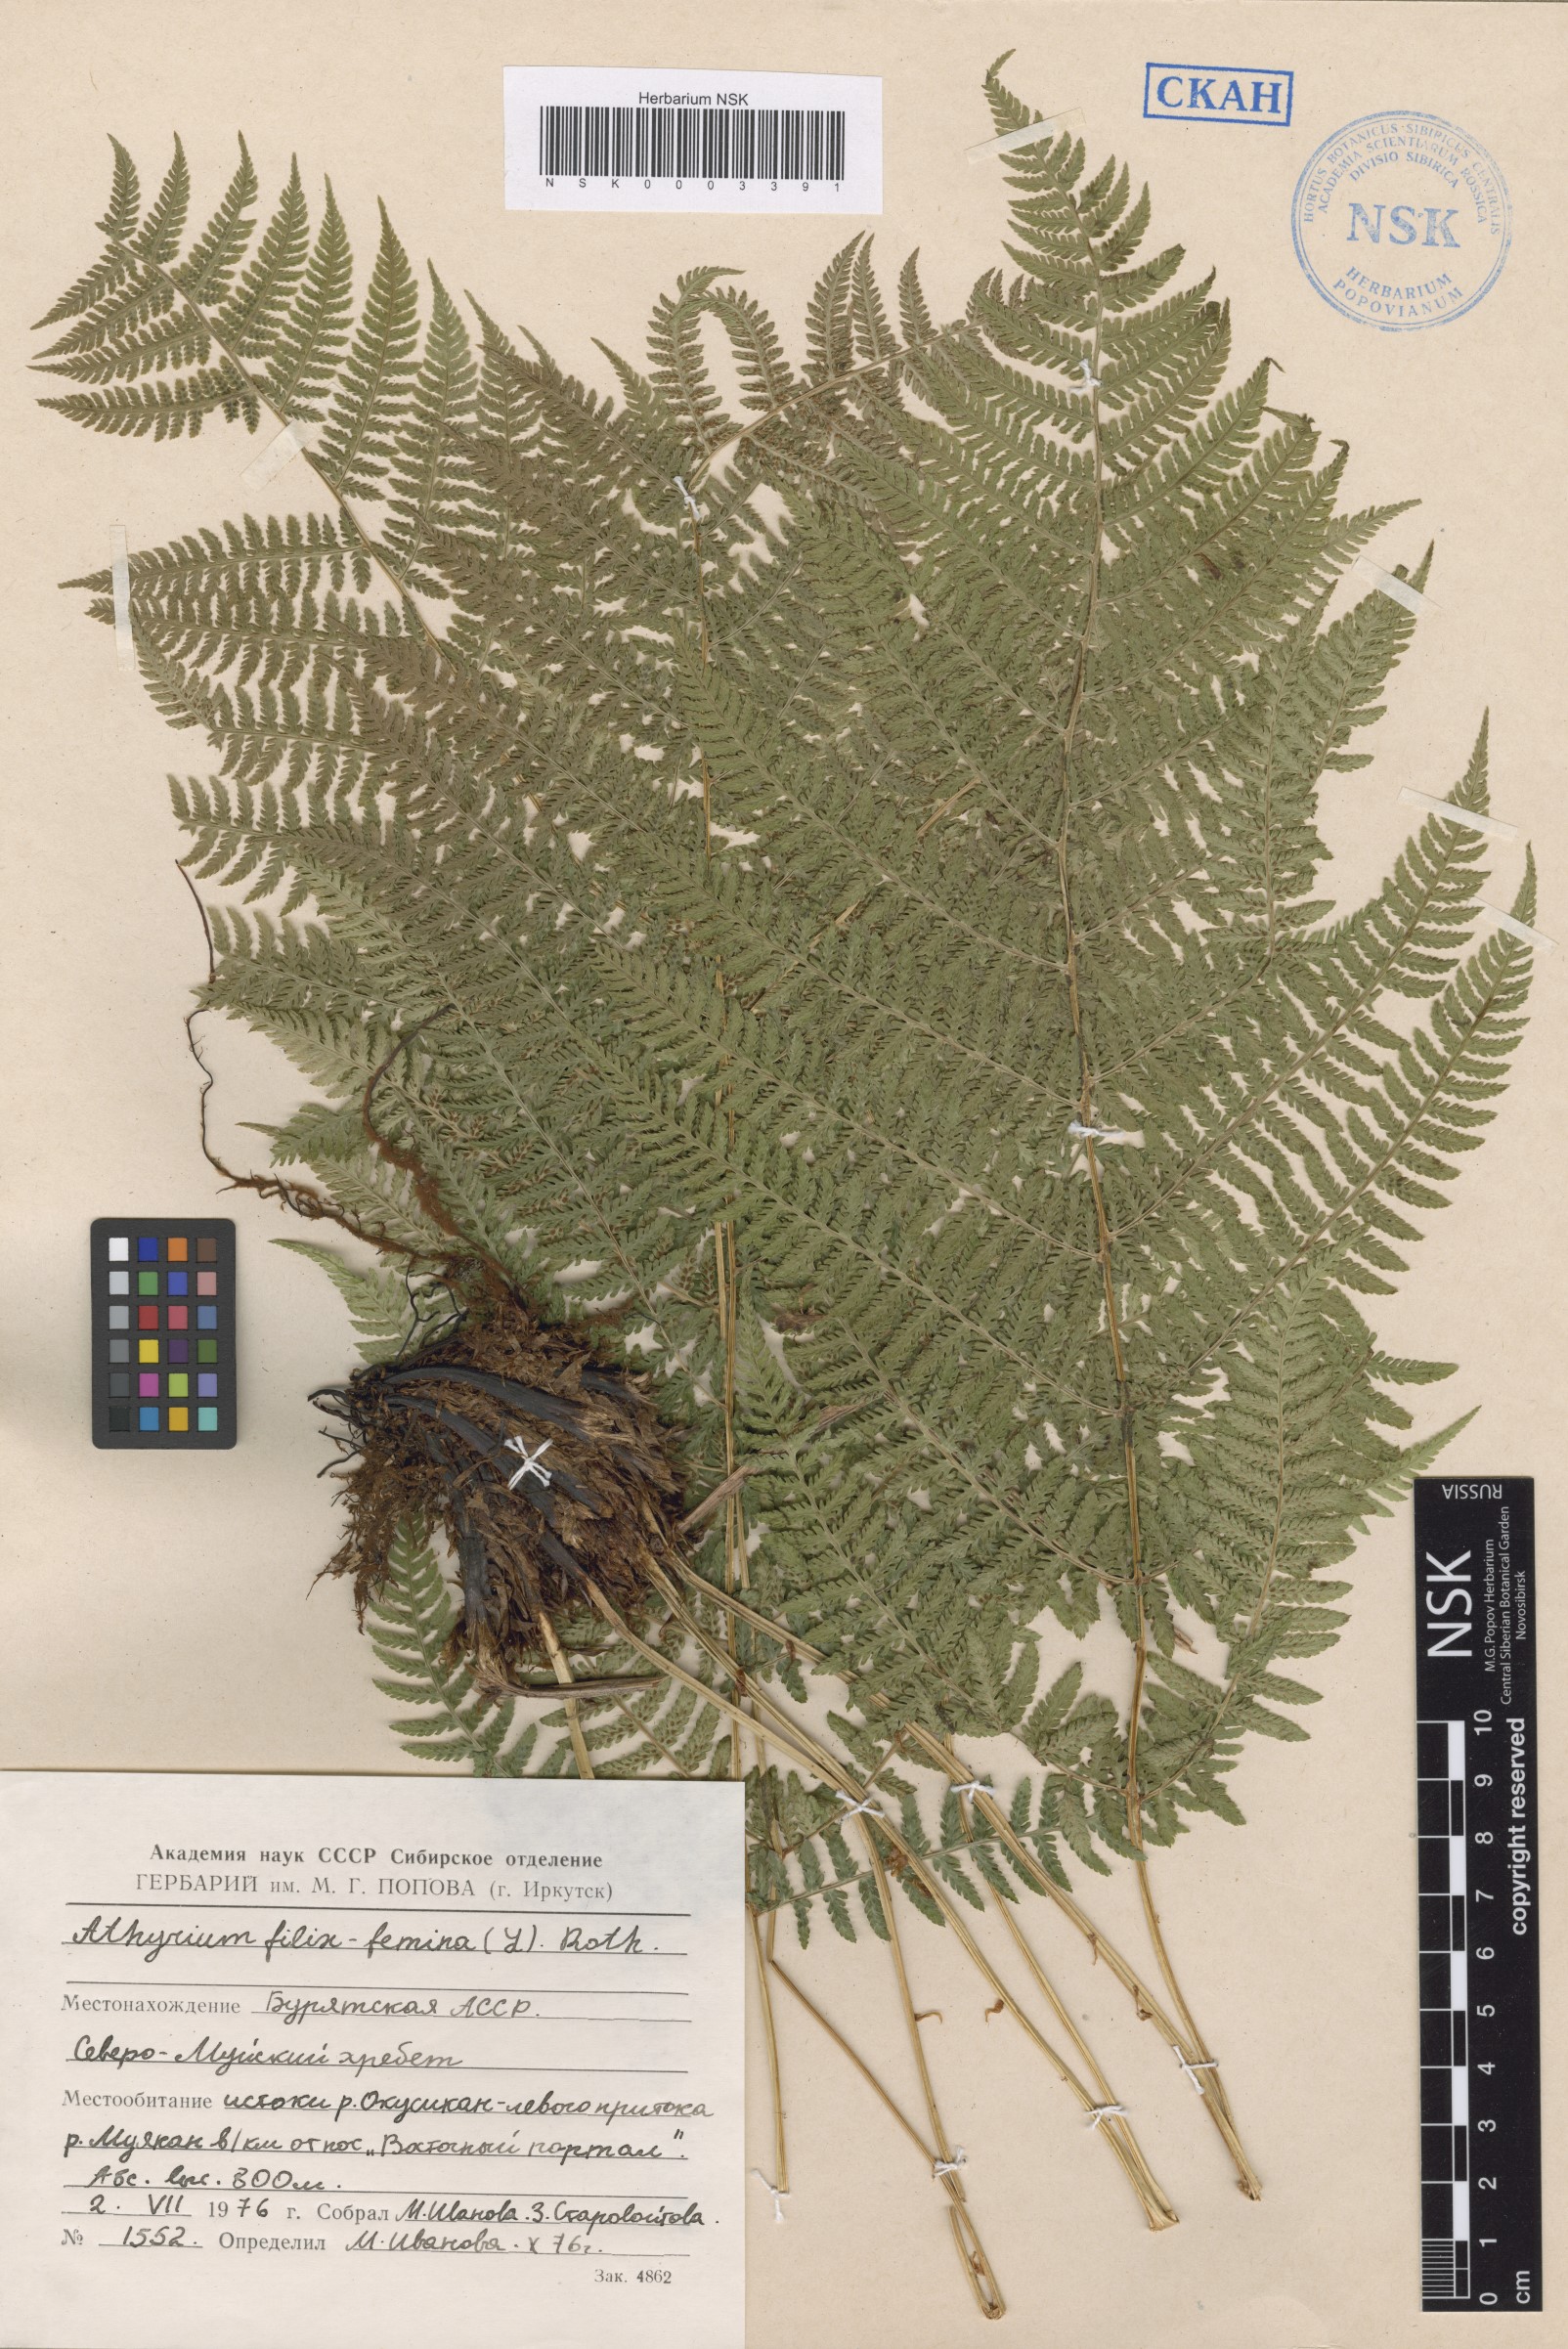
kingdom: Plantae
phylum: Tracheophyta
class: Polypodiopsida
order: Polypodiales
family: Athyriaceae
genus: Athyrium
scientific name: Athyrium filix-femina
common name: Lady fern
